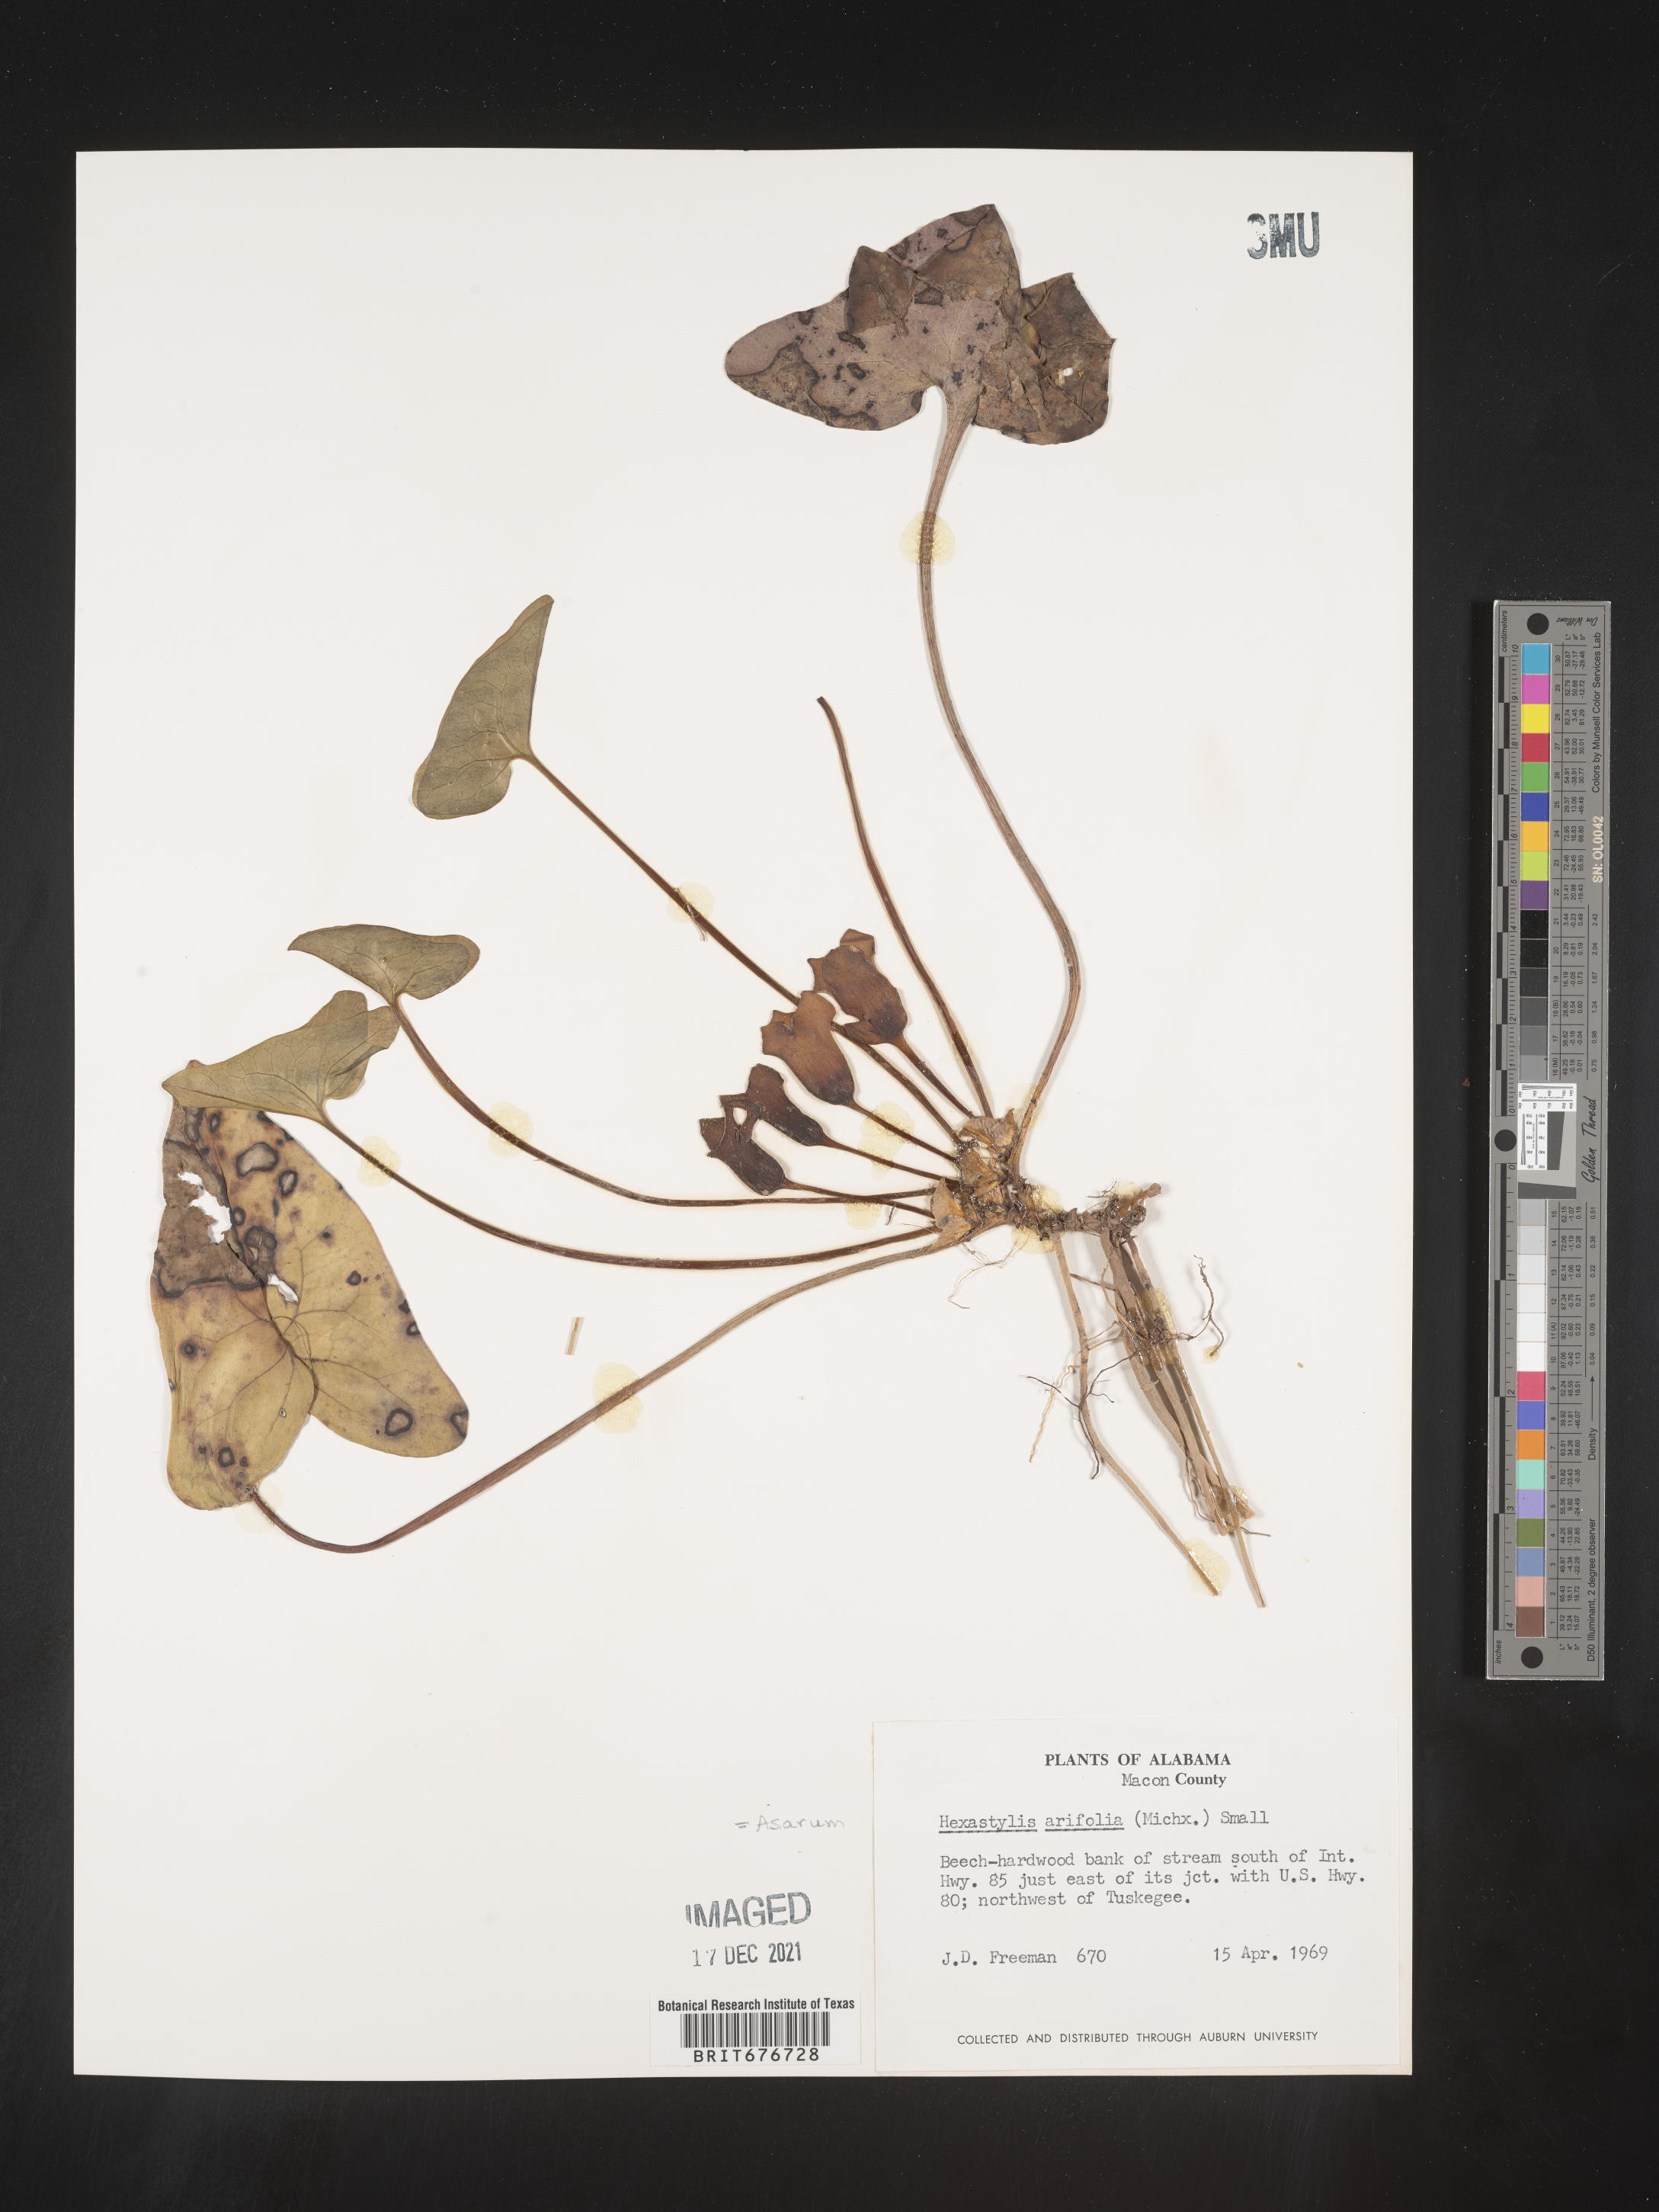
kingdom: Plantae
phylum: Tracheophyta
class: Magnoliopsida
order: Piperales
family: Aristolochiaceae
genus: Hexastylis
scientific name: Hexastylis arifolia
